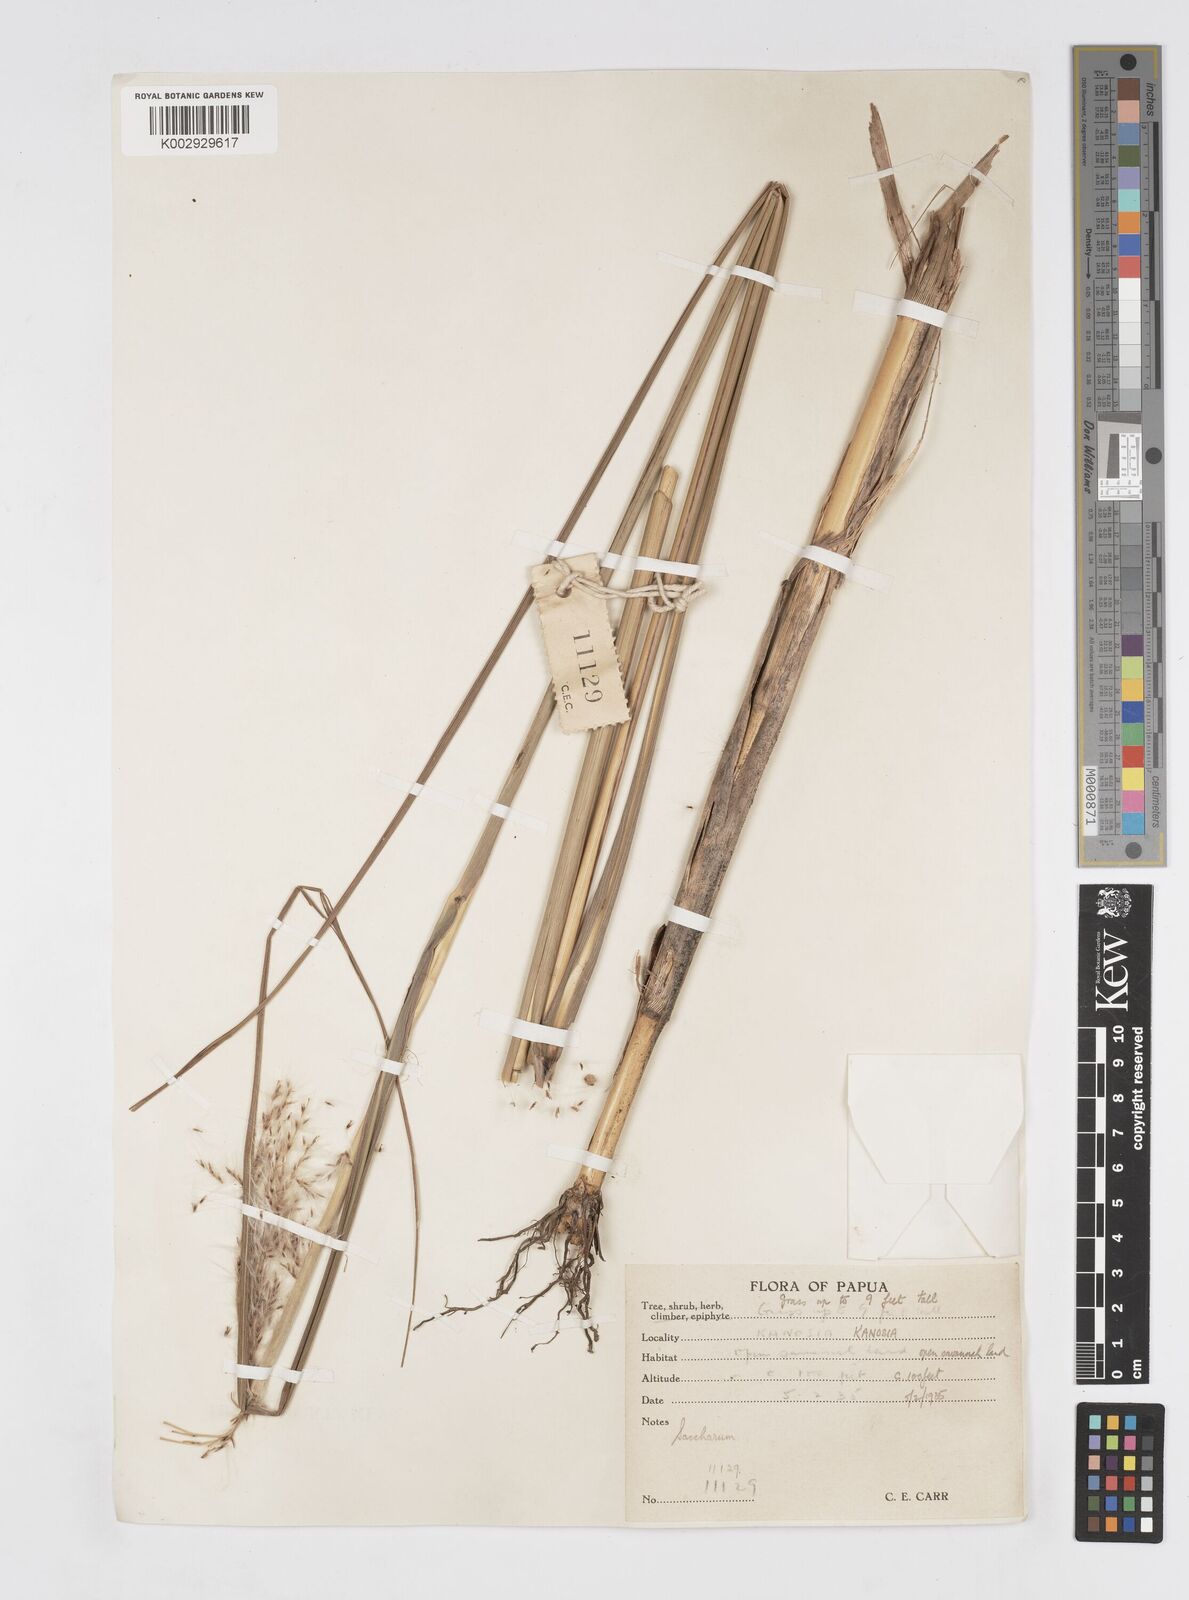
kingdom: Plantae
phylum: Tracheophyta
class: Liliopsida
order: Poales
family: Poaceae
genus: Saccharum
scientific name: Saccharum spontaneum
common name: Wild sugarcane
